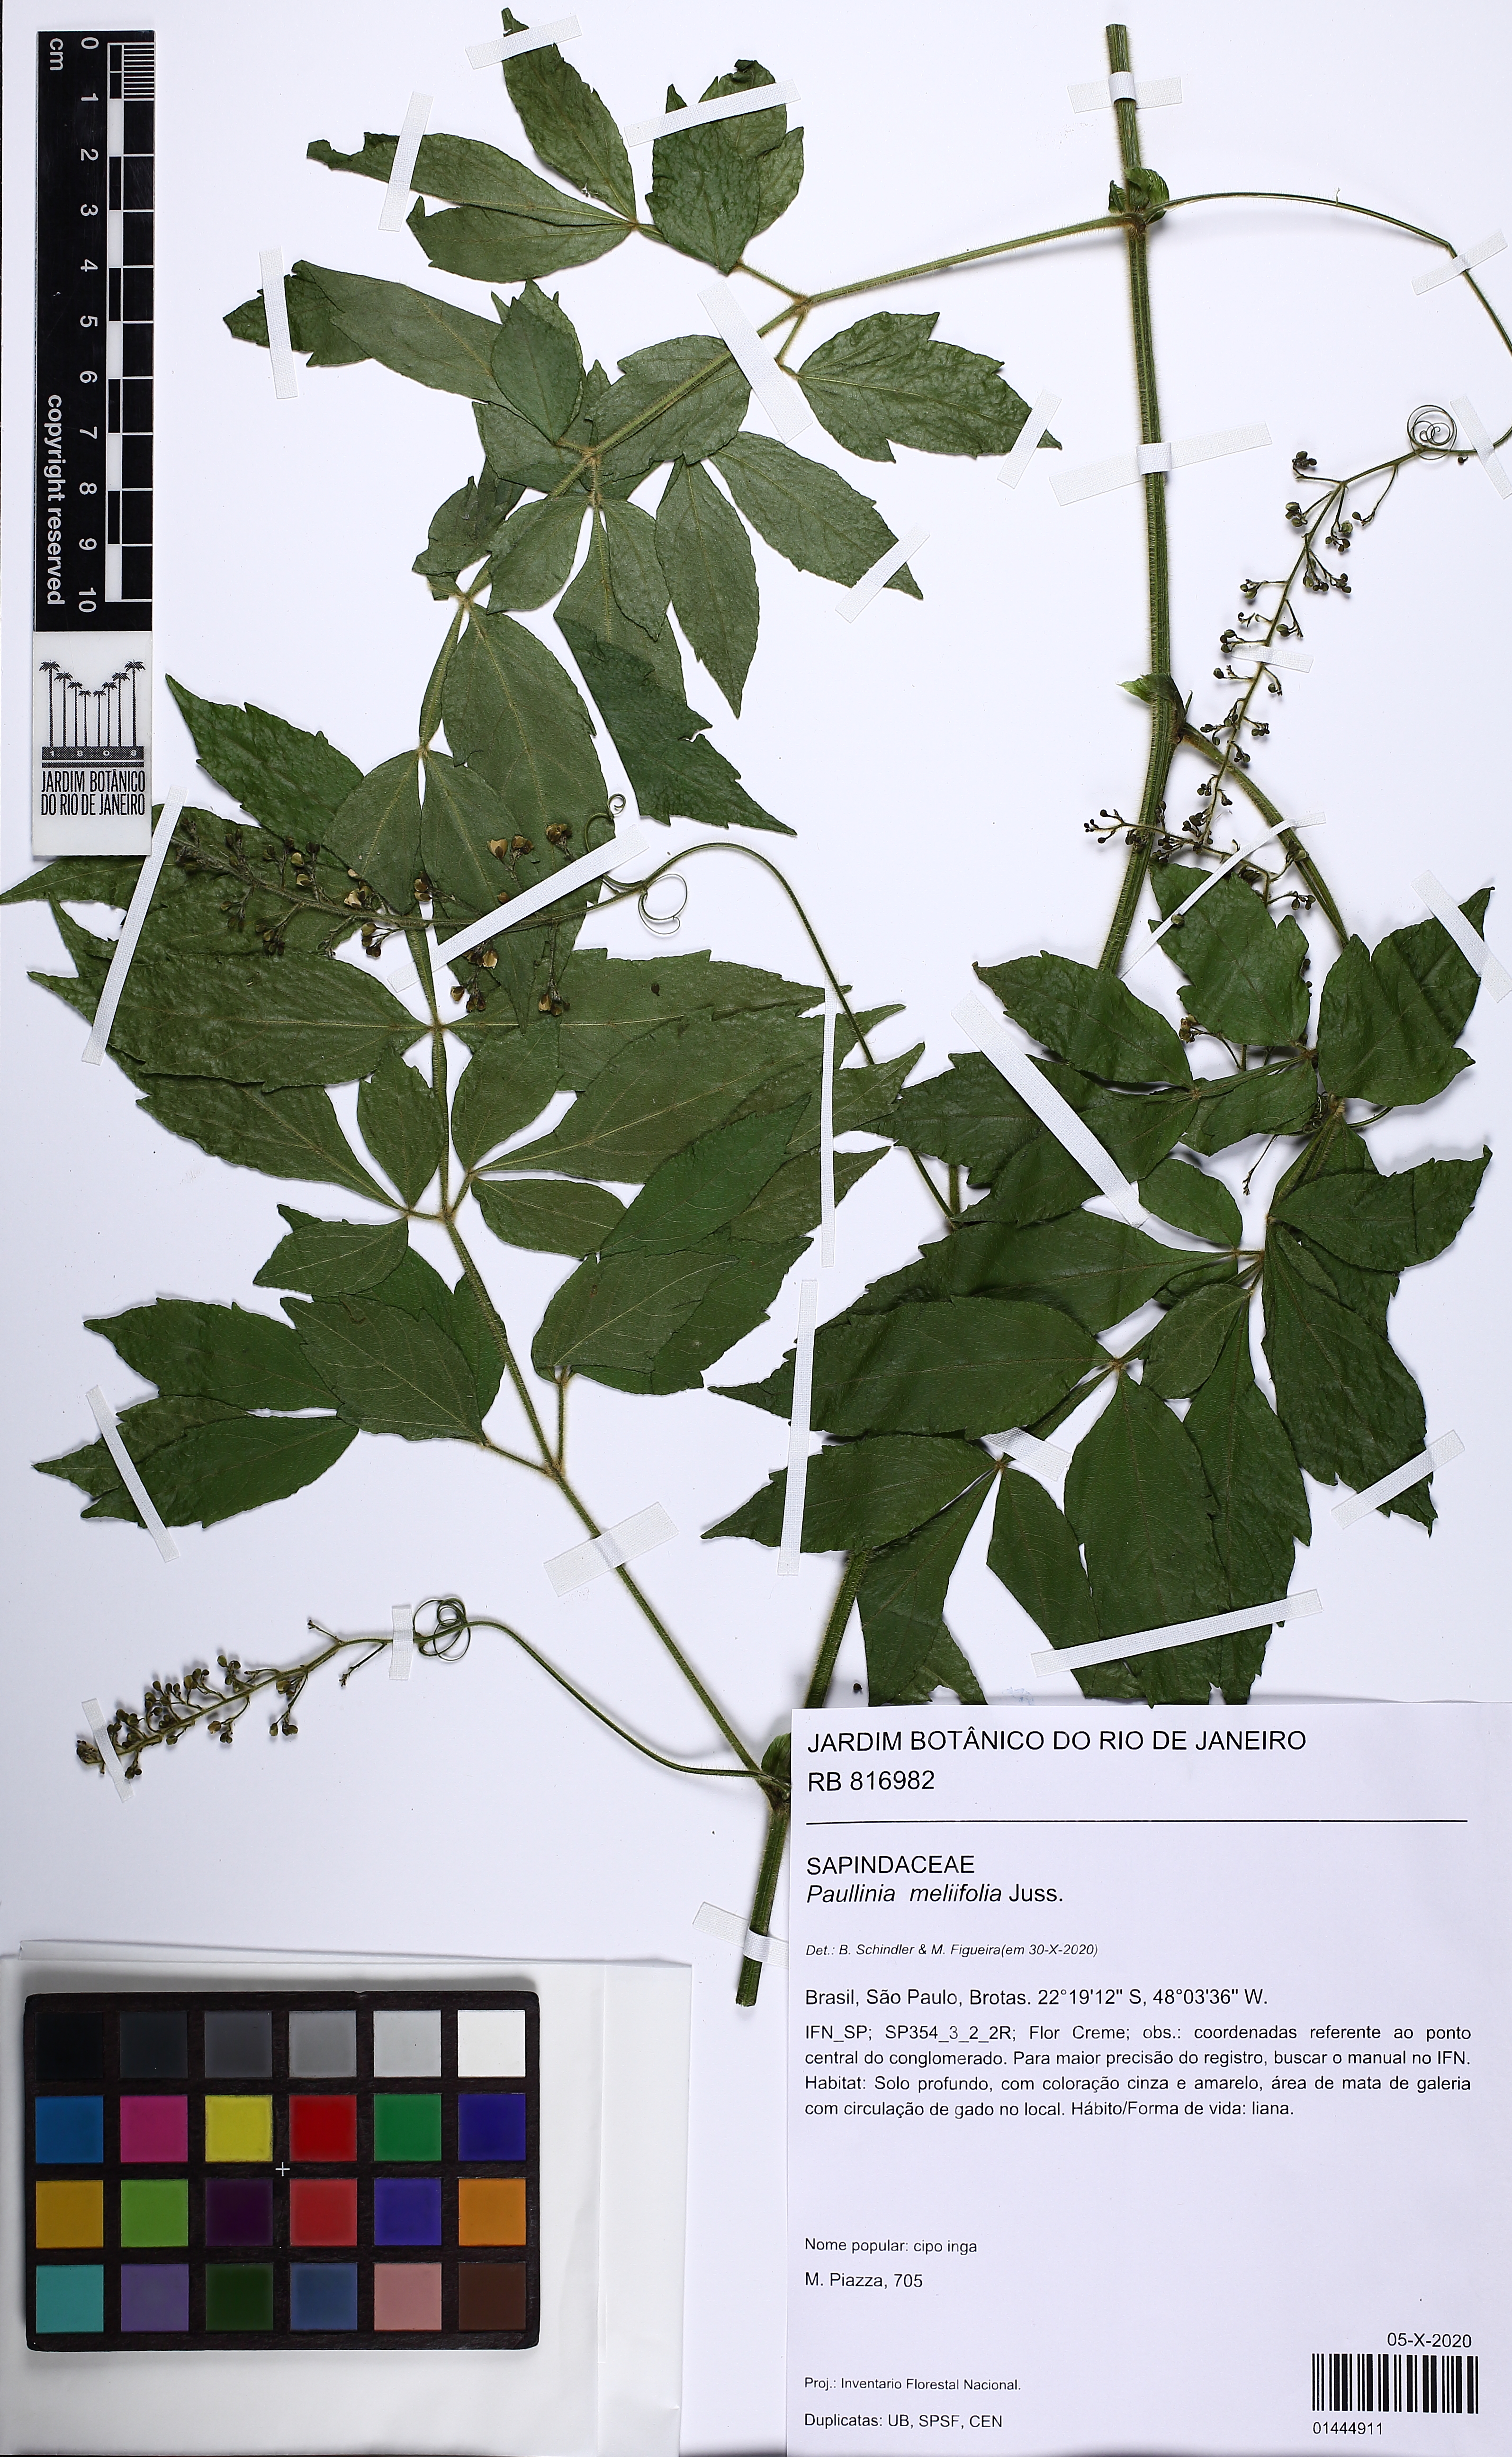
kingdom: Plantae
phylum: Tracheophyta
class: Magnoliopsida
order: Sapindales
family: Sapindaceae
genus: Paullinia
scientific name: Paullinia meliifolia
